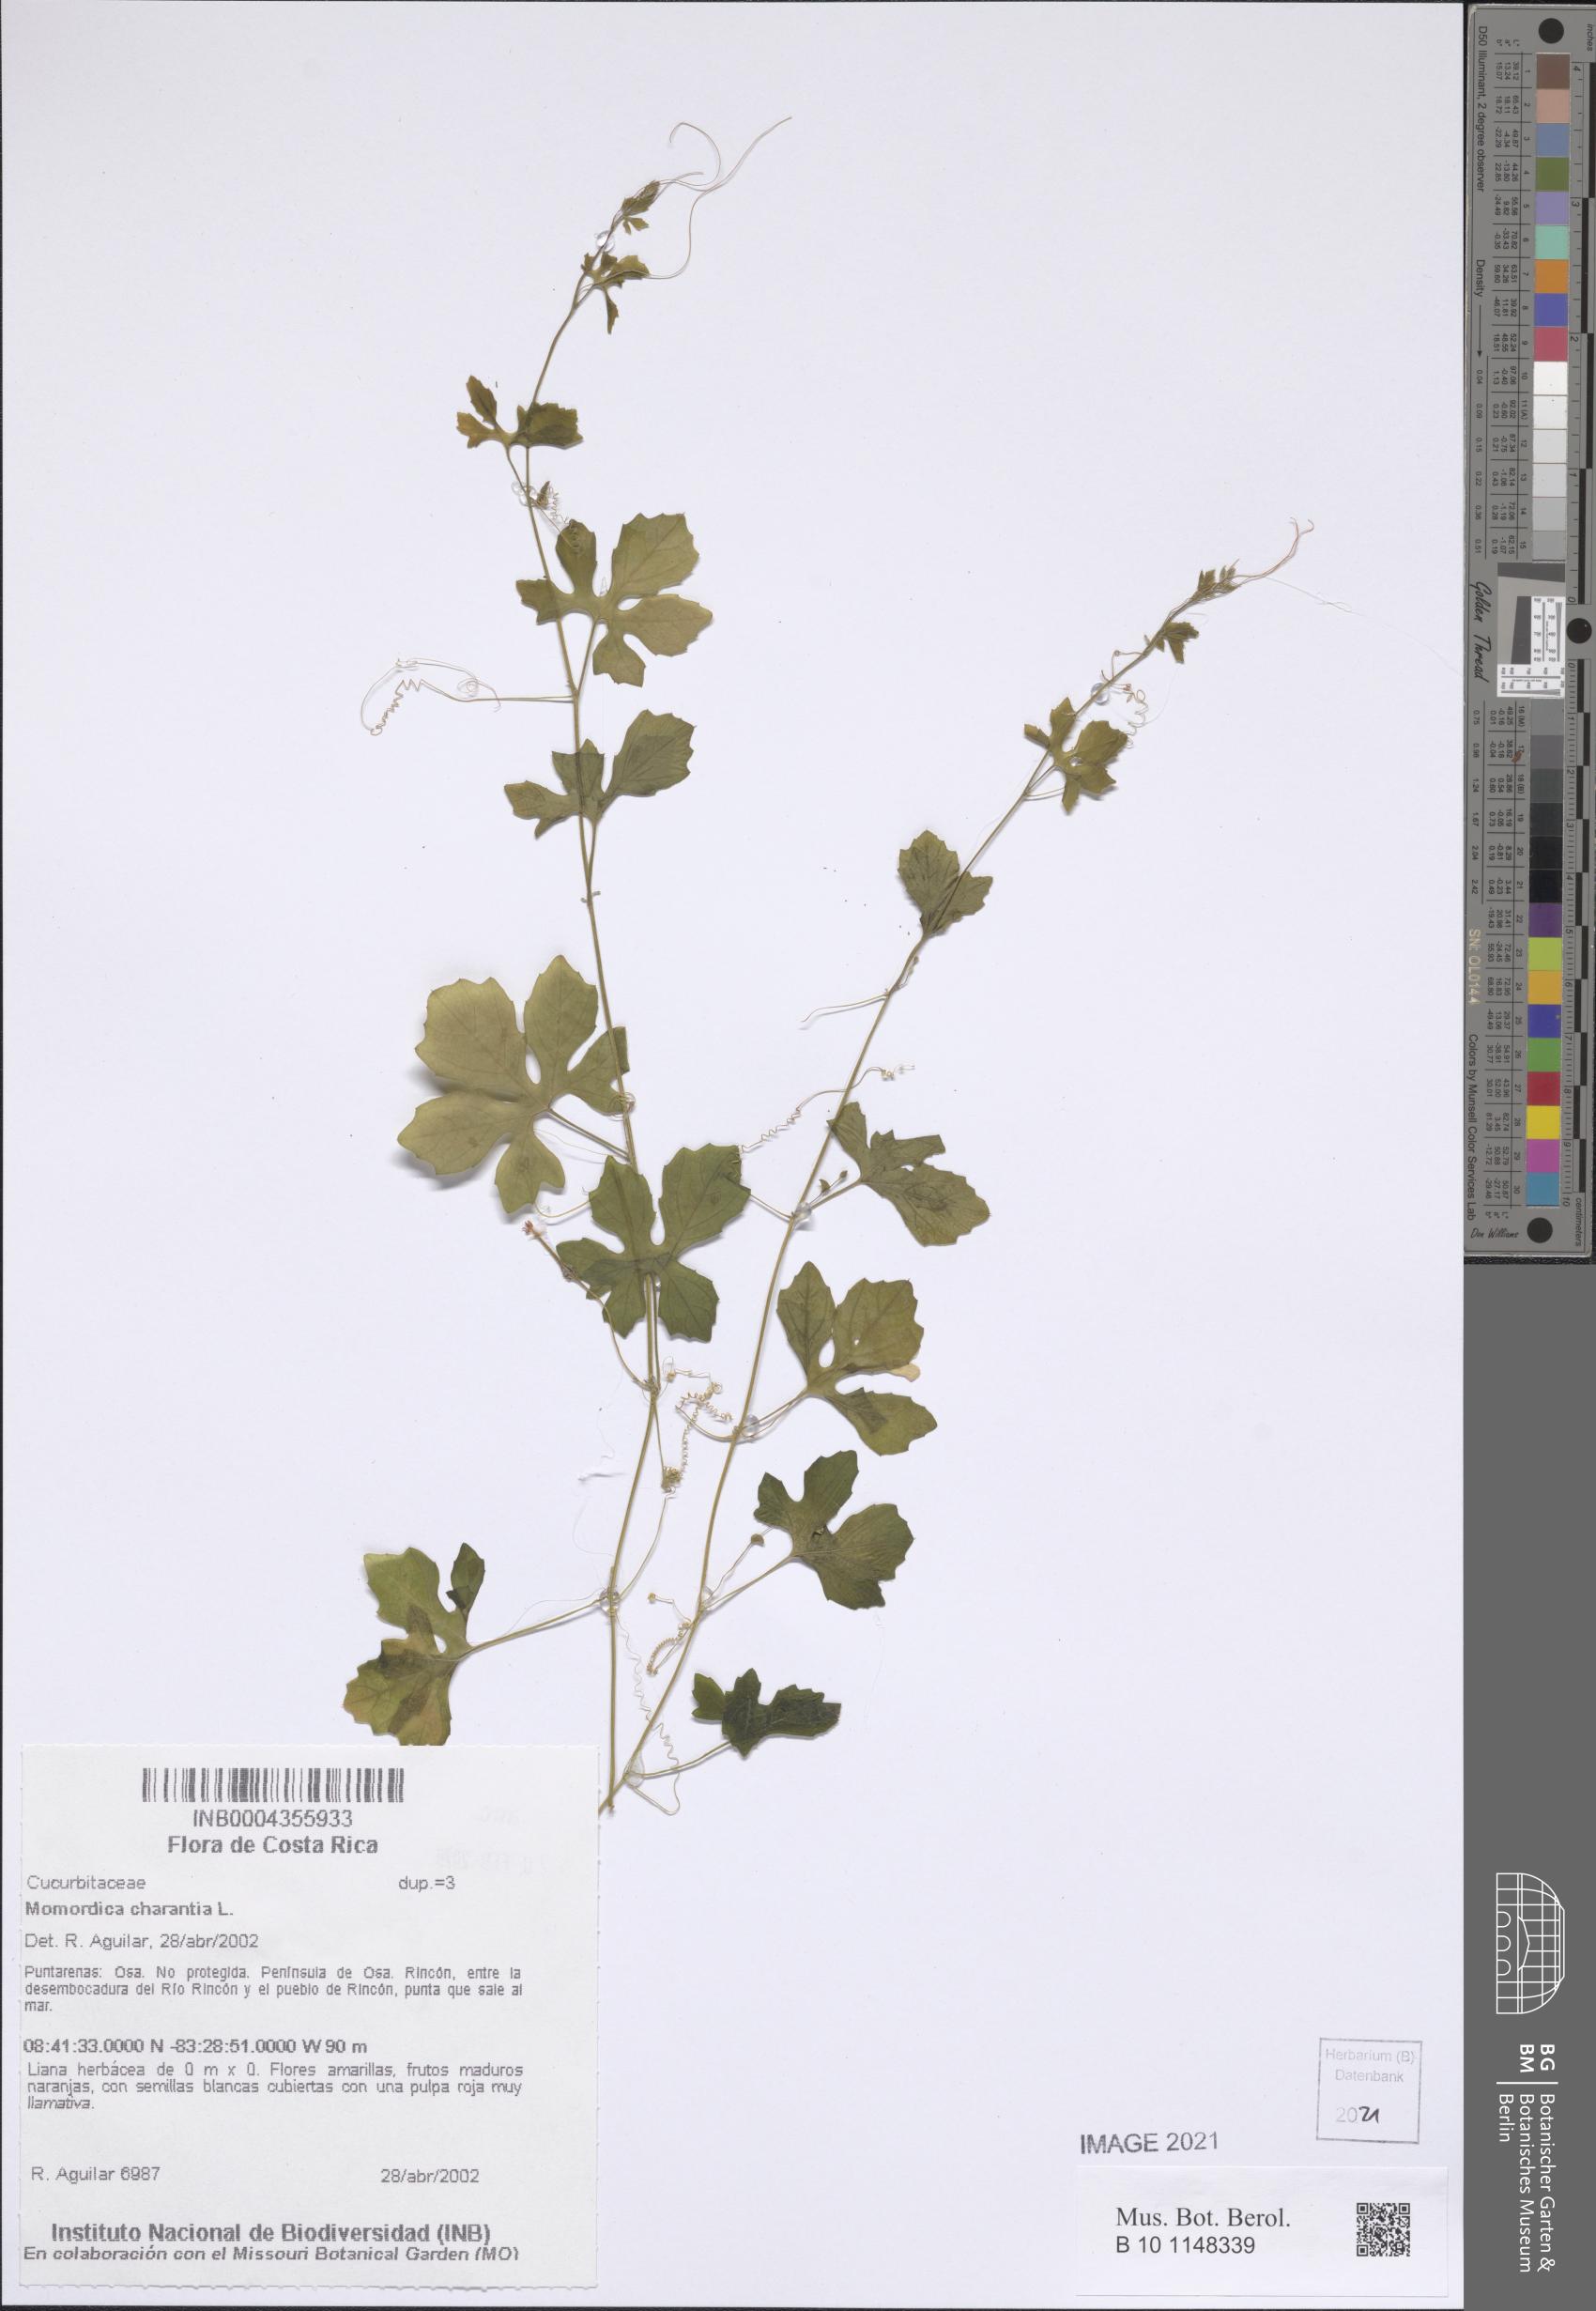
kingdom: Plantae
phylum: Tracheophyta
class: Magnoliopsida
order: Cucurbitales
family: Cucurbitaceae
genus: Momordica
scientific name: Momordica charantia
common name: Balsampear
